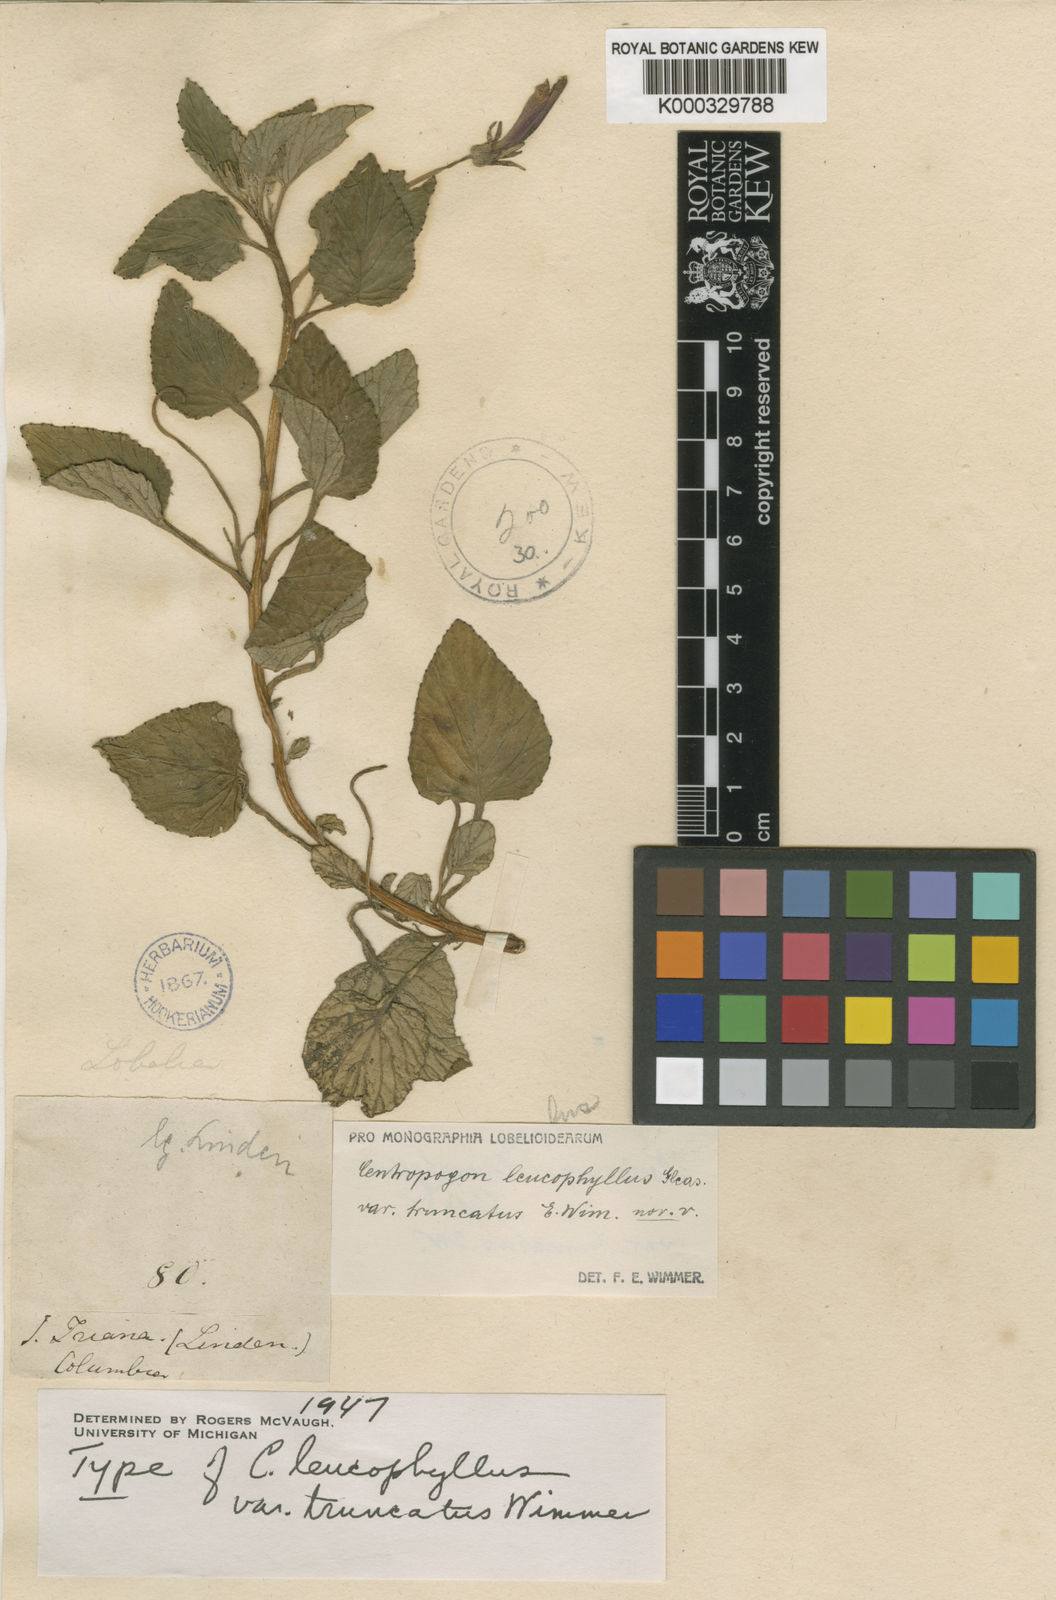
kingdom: Plantae
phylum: Tracheophyta
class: Magnoliopsida
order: Asterales
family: Campanulaceae
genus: Centropogon
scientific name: Centropogon leucophyllus
